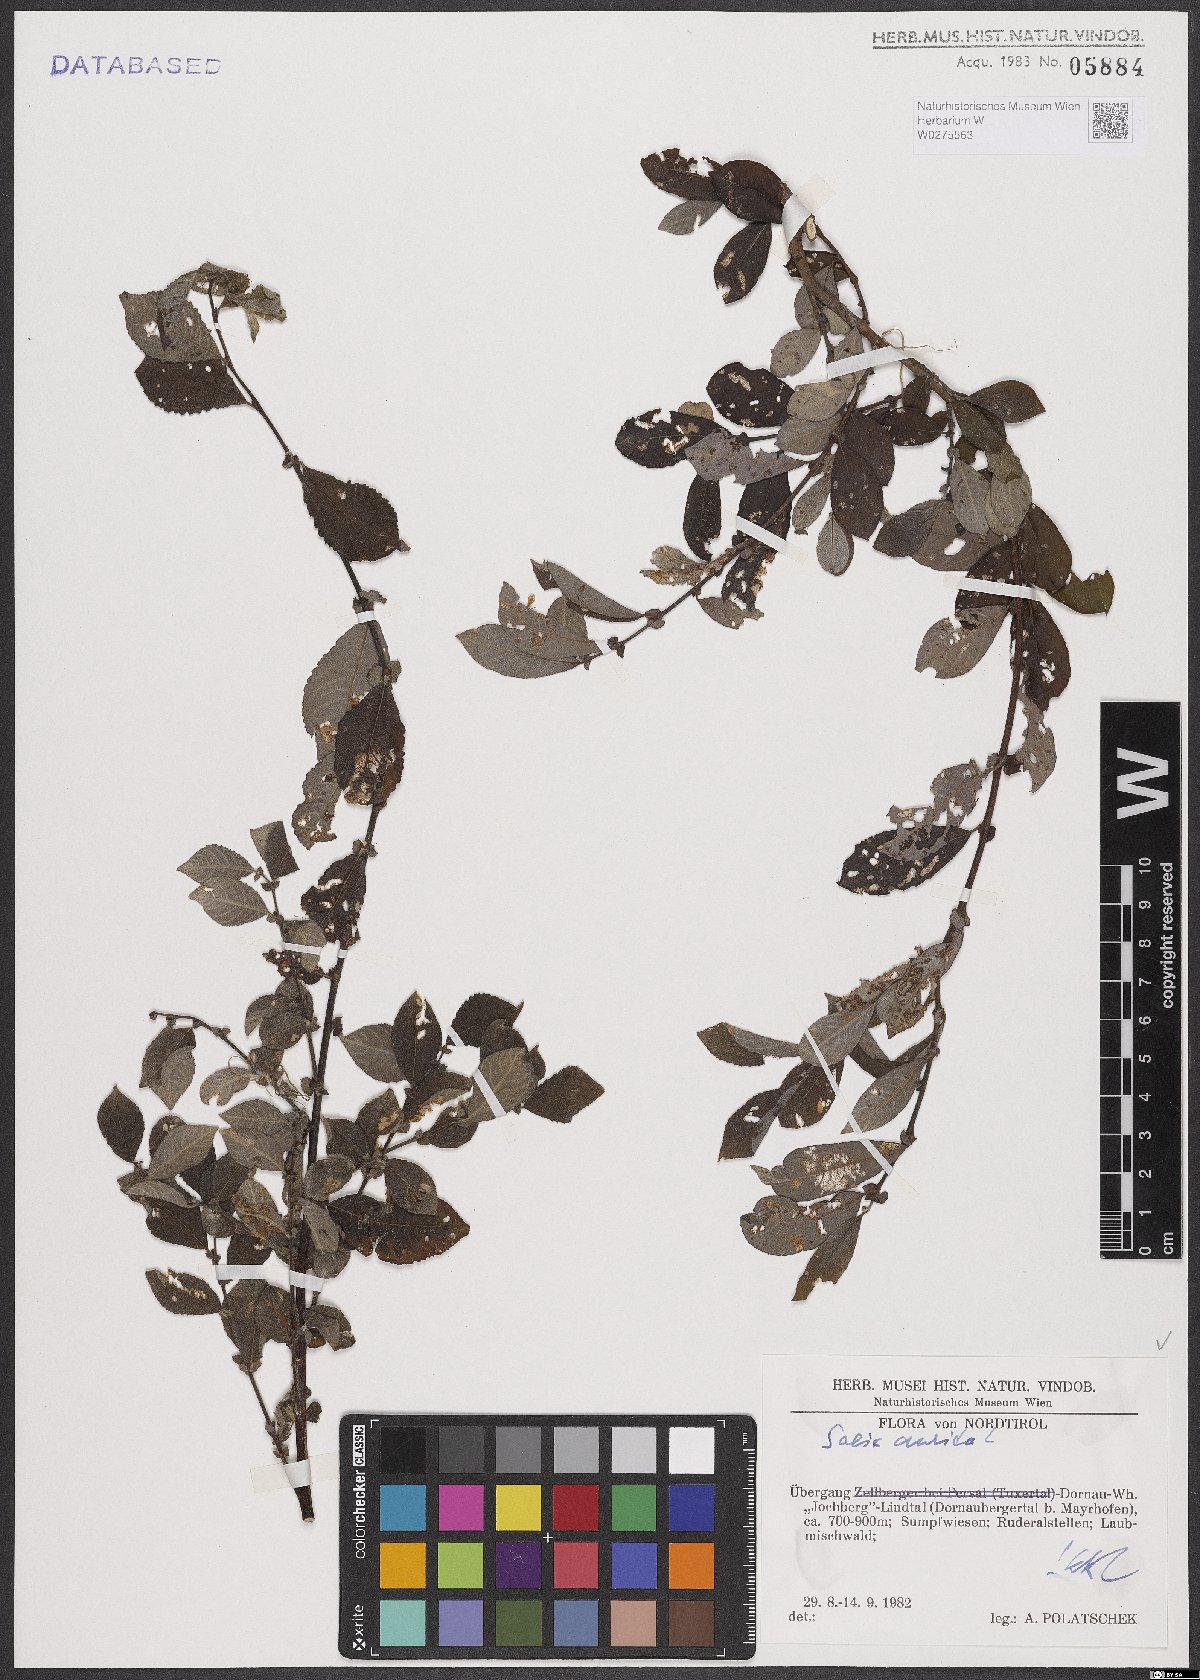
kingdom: Plantae
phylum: Tracheophyta
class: Magnoliopsida
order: Malpighiales
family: Salicaceae
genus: Salix
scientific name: Salix aurita
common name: Eared willow
